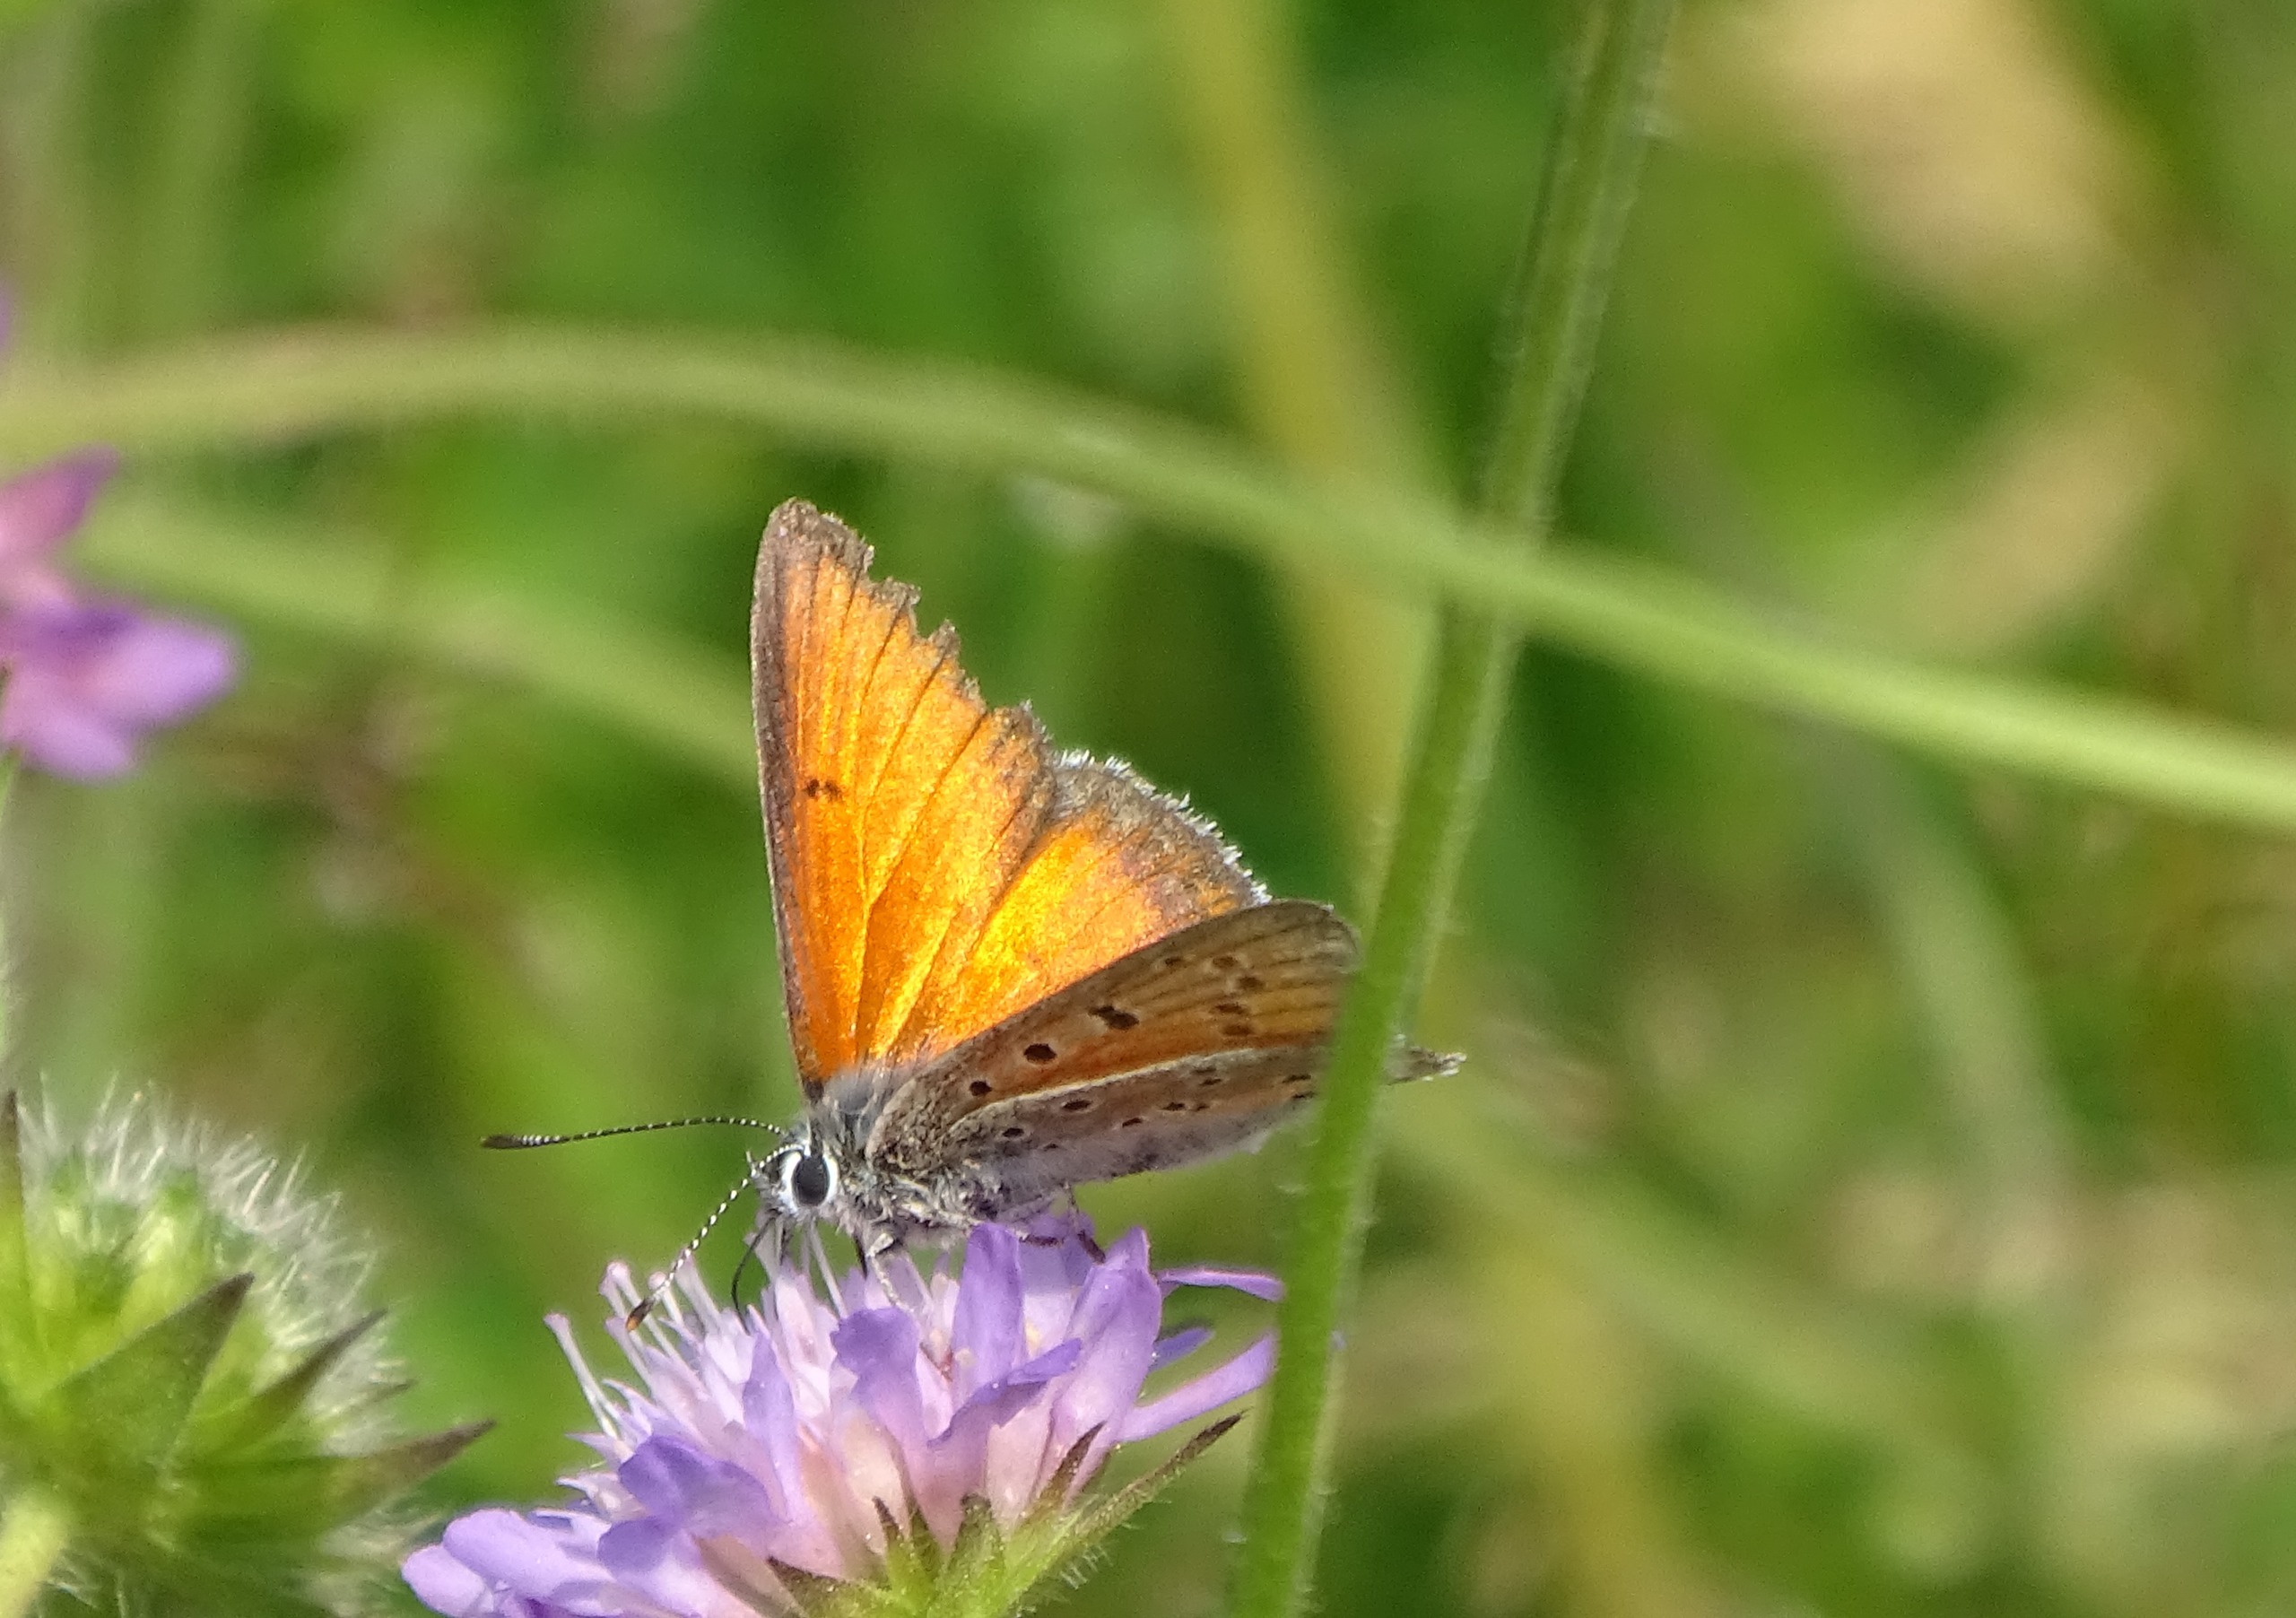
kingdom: Animalia
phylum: Arthropoda
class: Insecta
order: Lepidoptera
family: Lycaenidae
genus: Palaeochrysophanus
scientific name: Palaeochrysophanus hippothoe
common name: Violetrandet ildfugl
